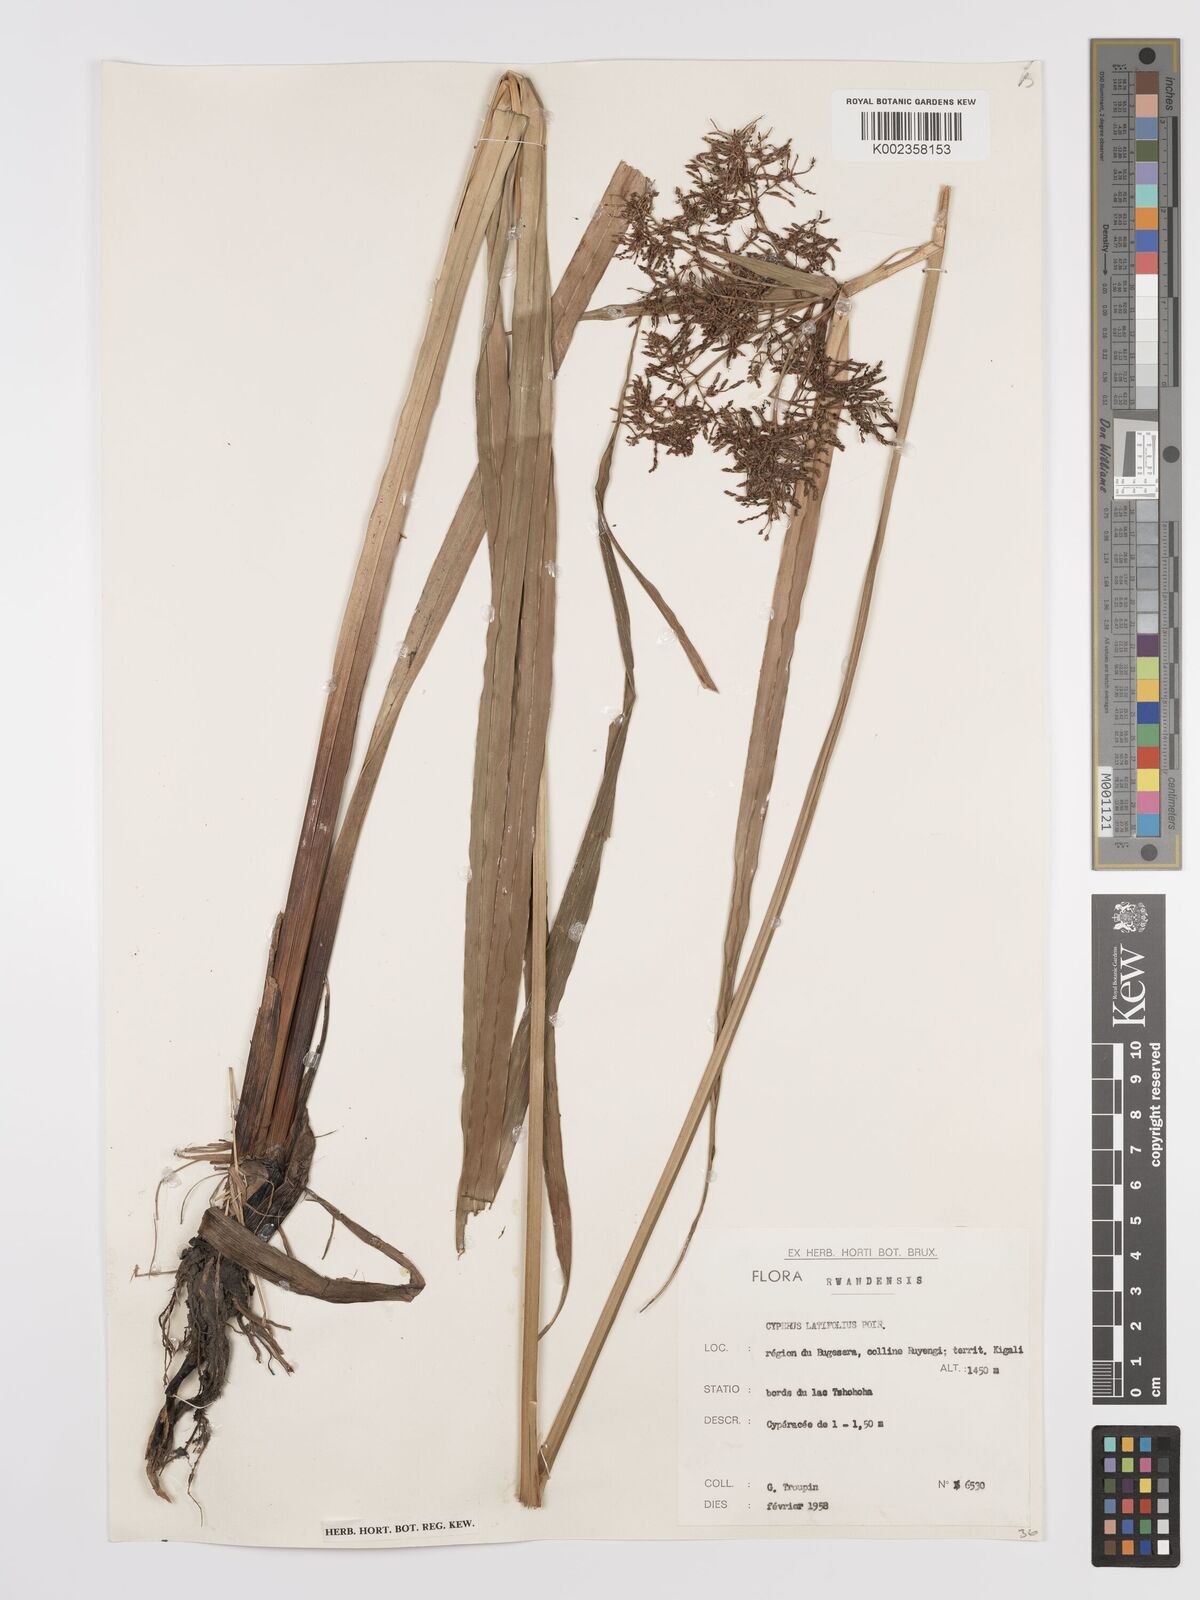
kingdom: Plantae
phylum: Tracheophyta
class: Liliopsida
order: Poales
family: Cyperaceae
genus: Cyperus
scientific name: Cyperus latifolius
